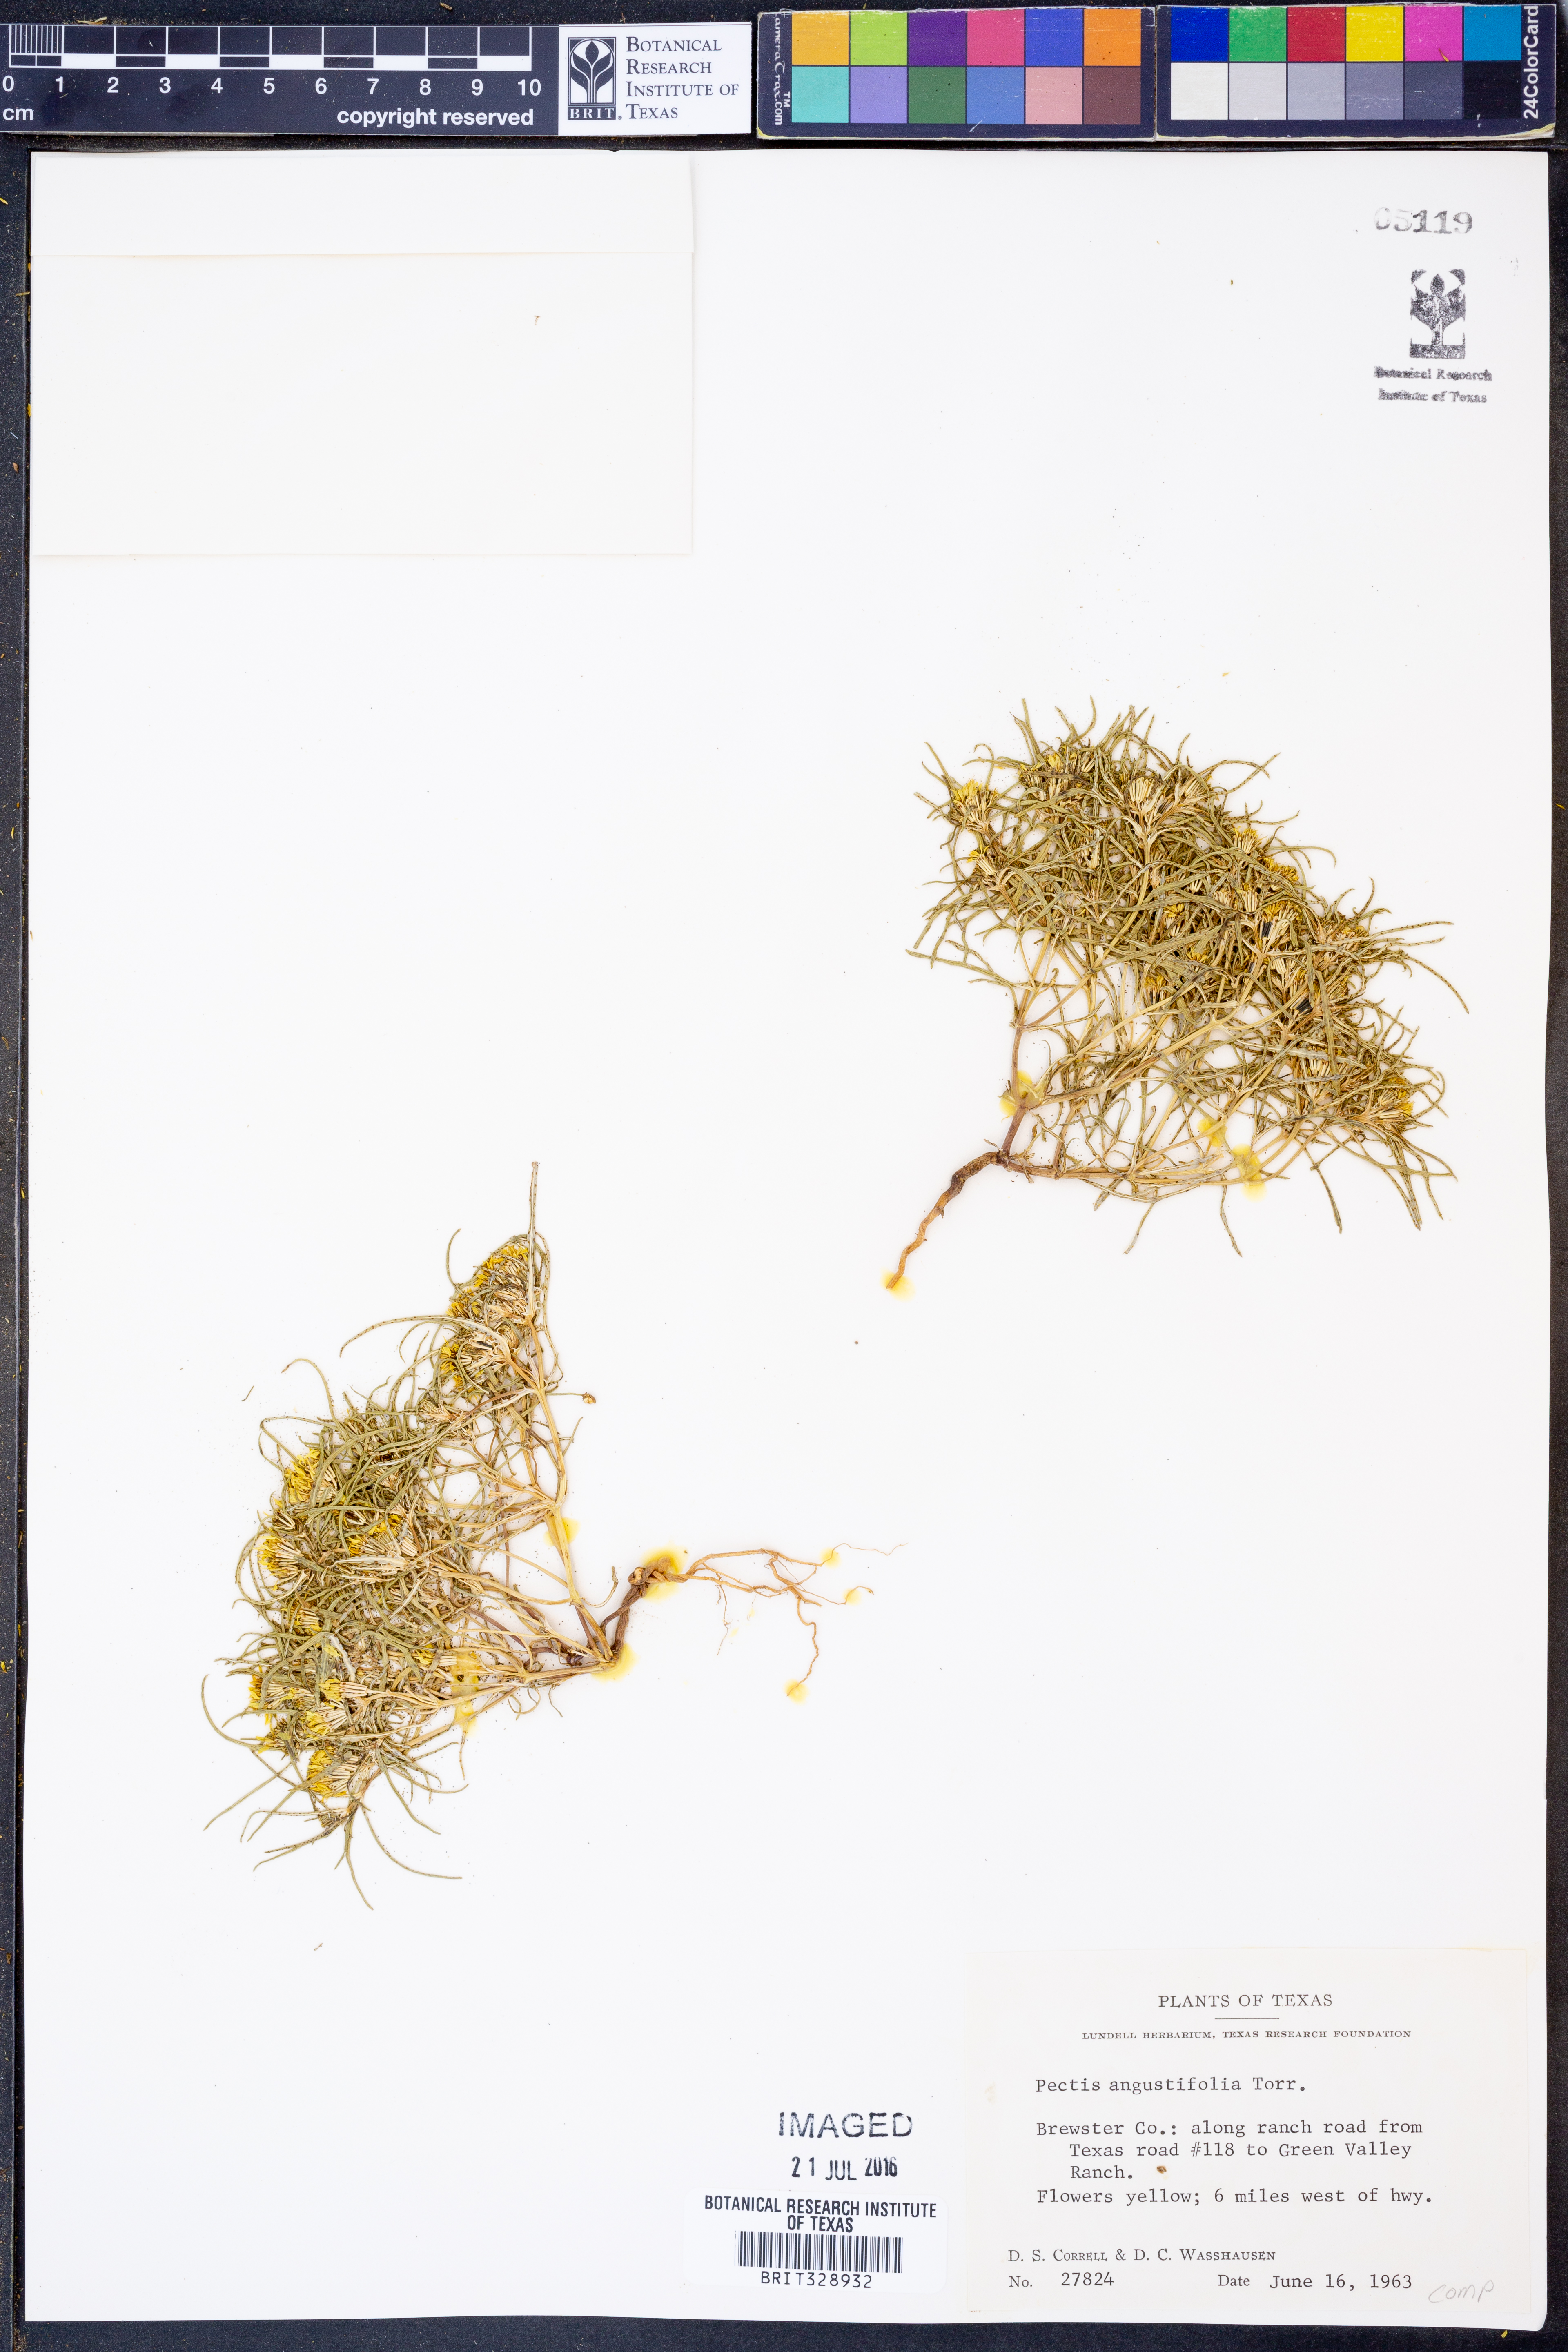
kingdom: Plantae
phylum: Tracheophyta
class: Magnoliopsida
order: Asterales
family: Asteraceae
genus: Pectis
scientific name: Pectis angustifolia
